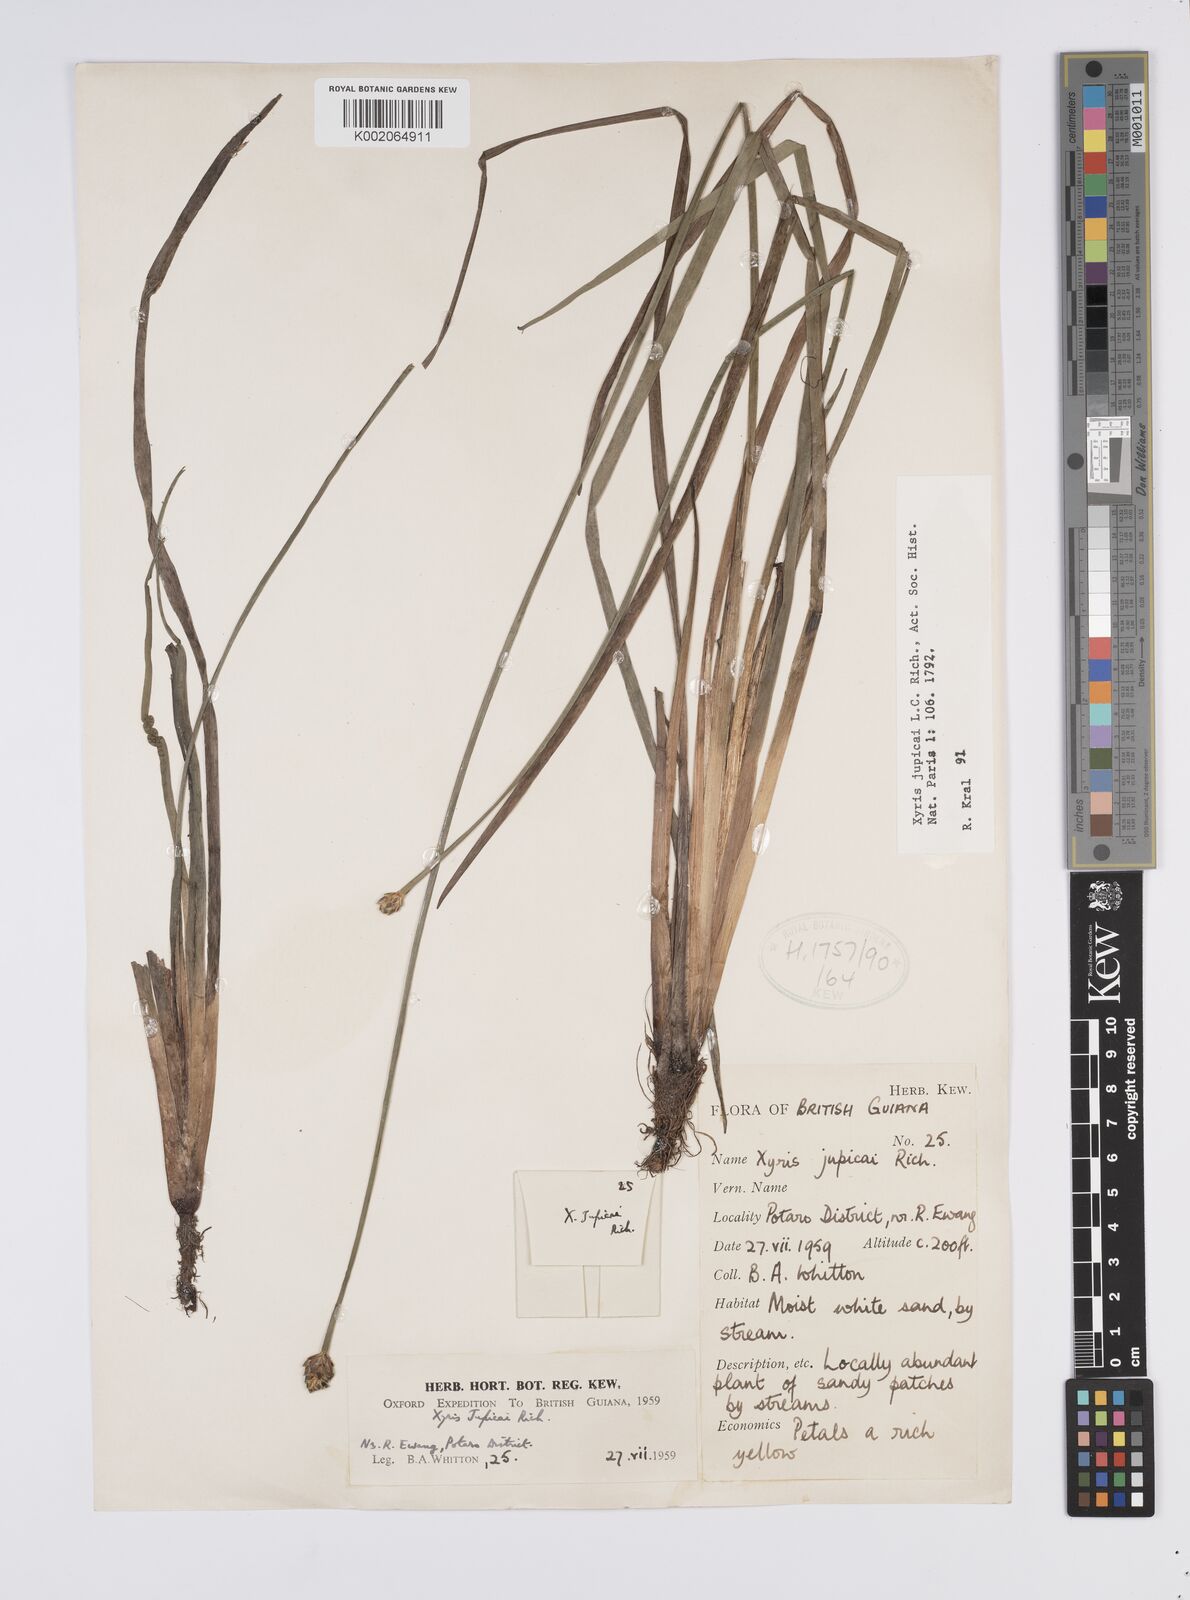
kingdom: Plantae
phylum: Tracheophyta
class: Liliopsida
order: Poales
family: Xyridaceae
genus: Xyris
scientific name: Xyris jupicai
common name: Richard's yelloweyed grass
